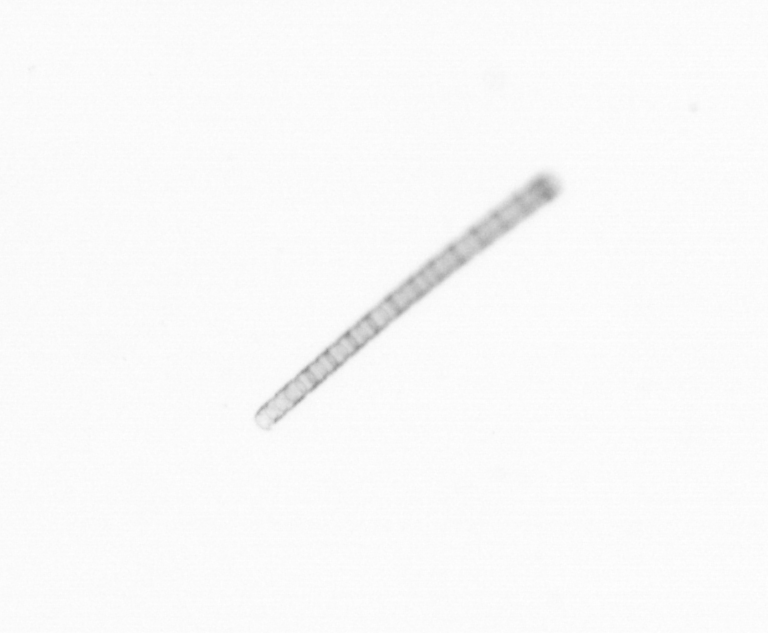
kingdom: Chromista
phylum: Ochrophyta
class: Bacillariophyceae
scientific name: Bacillariophyceae
